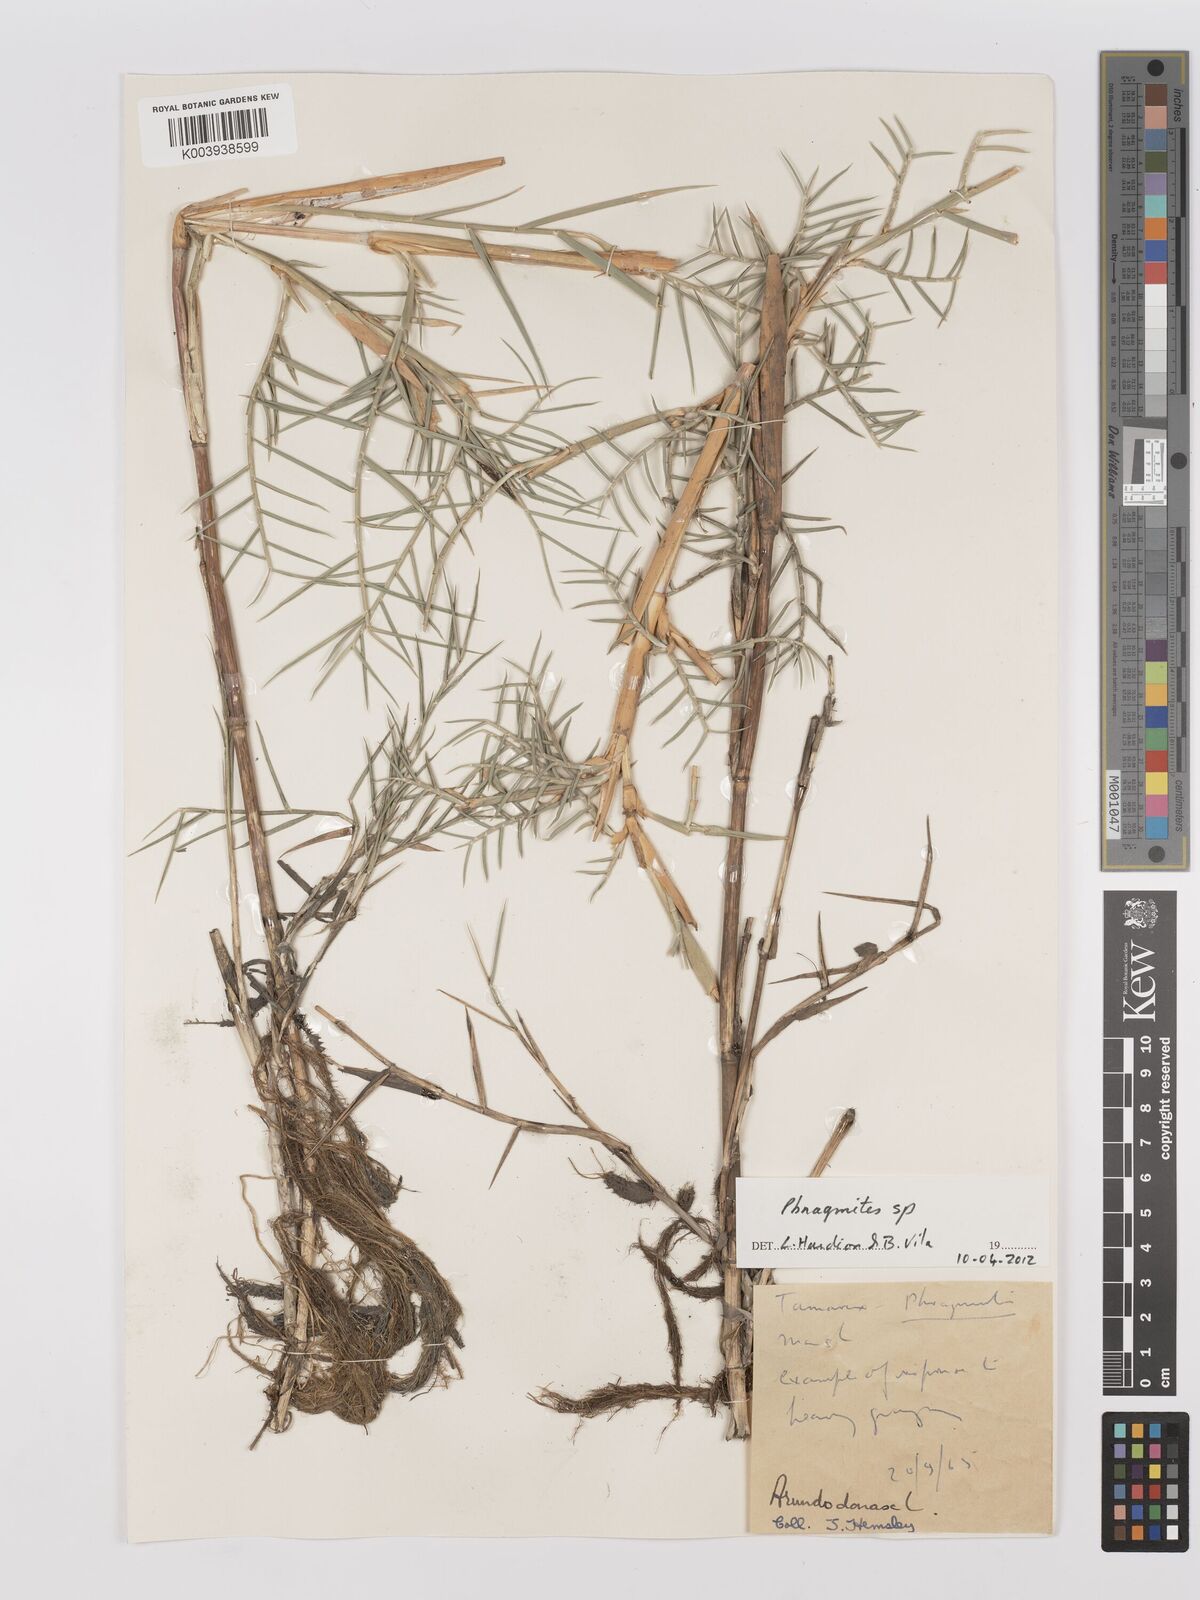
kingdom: Plantae
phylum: Tracheophyta
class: Liliopsida
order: Poales
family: Poaceae
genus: Phragmites
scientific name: Phragmites
